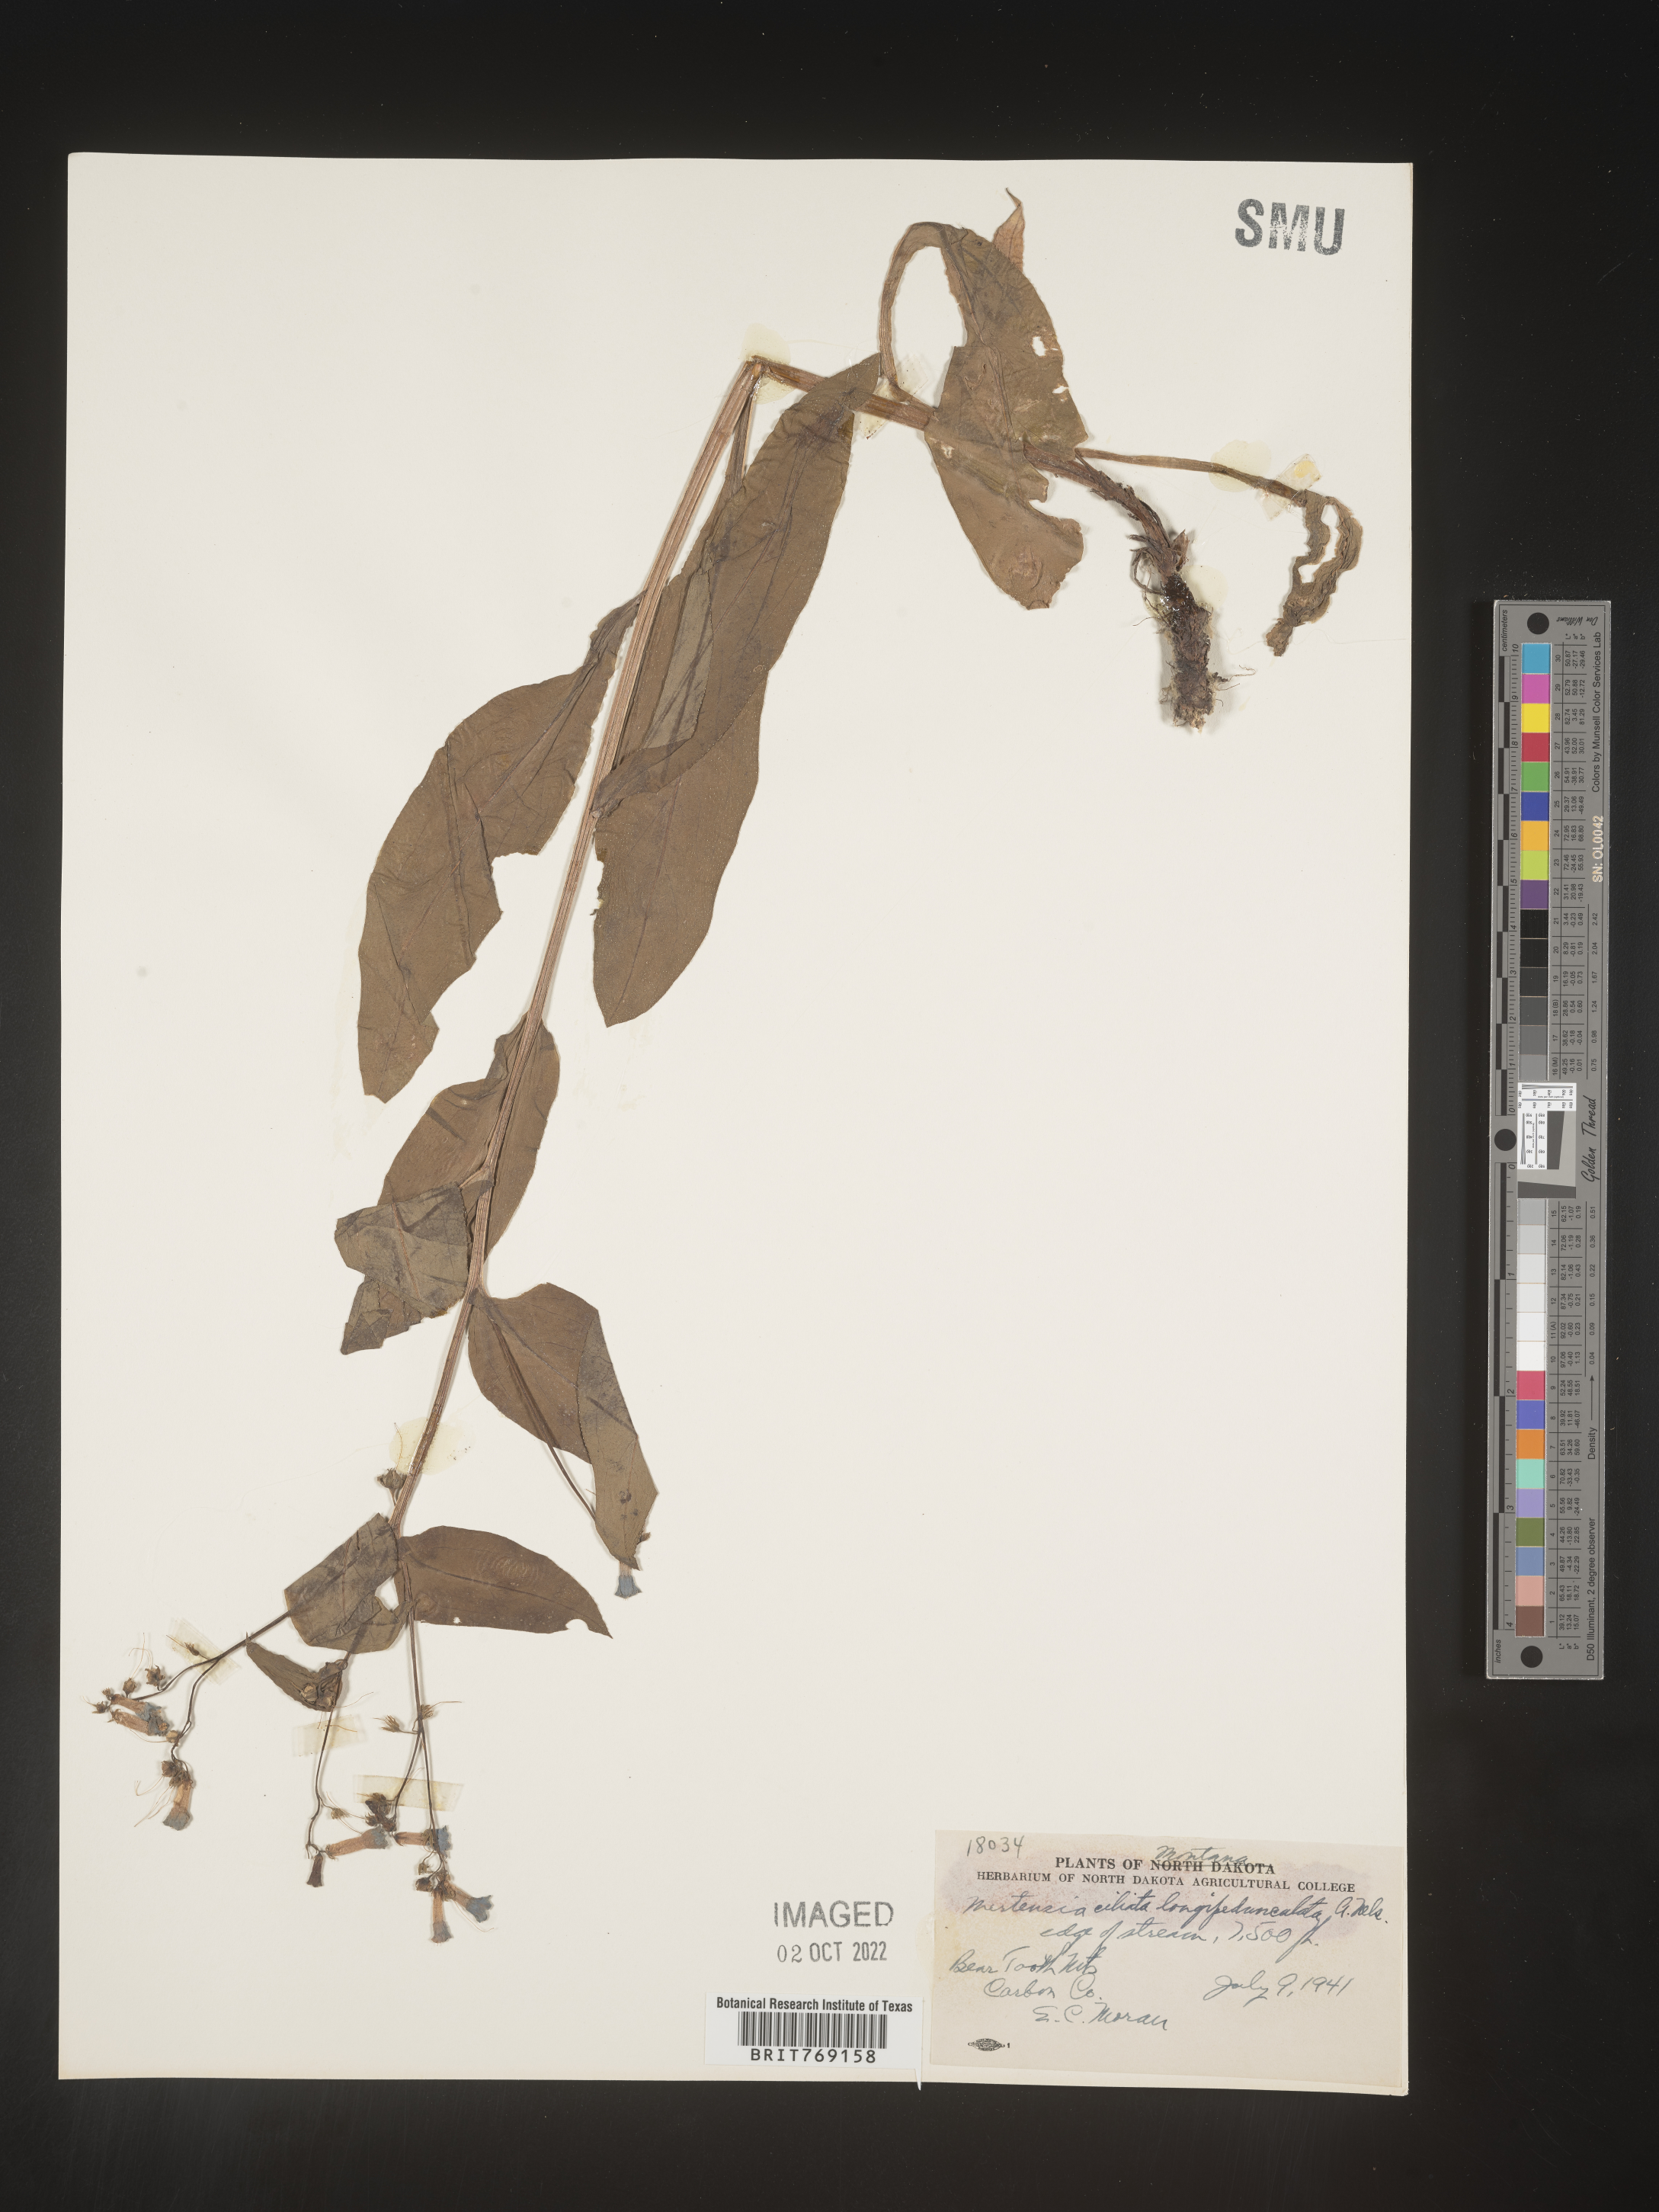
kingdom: Plantae
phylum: Tracheophyta
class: Magnoliopsida
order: Boraginales
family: Boraginaceae
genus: Mertensia
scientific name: Mertensia
